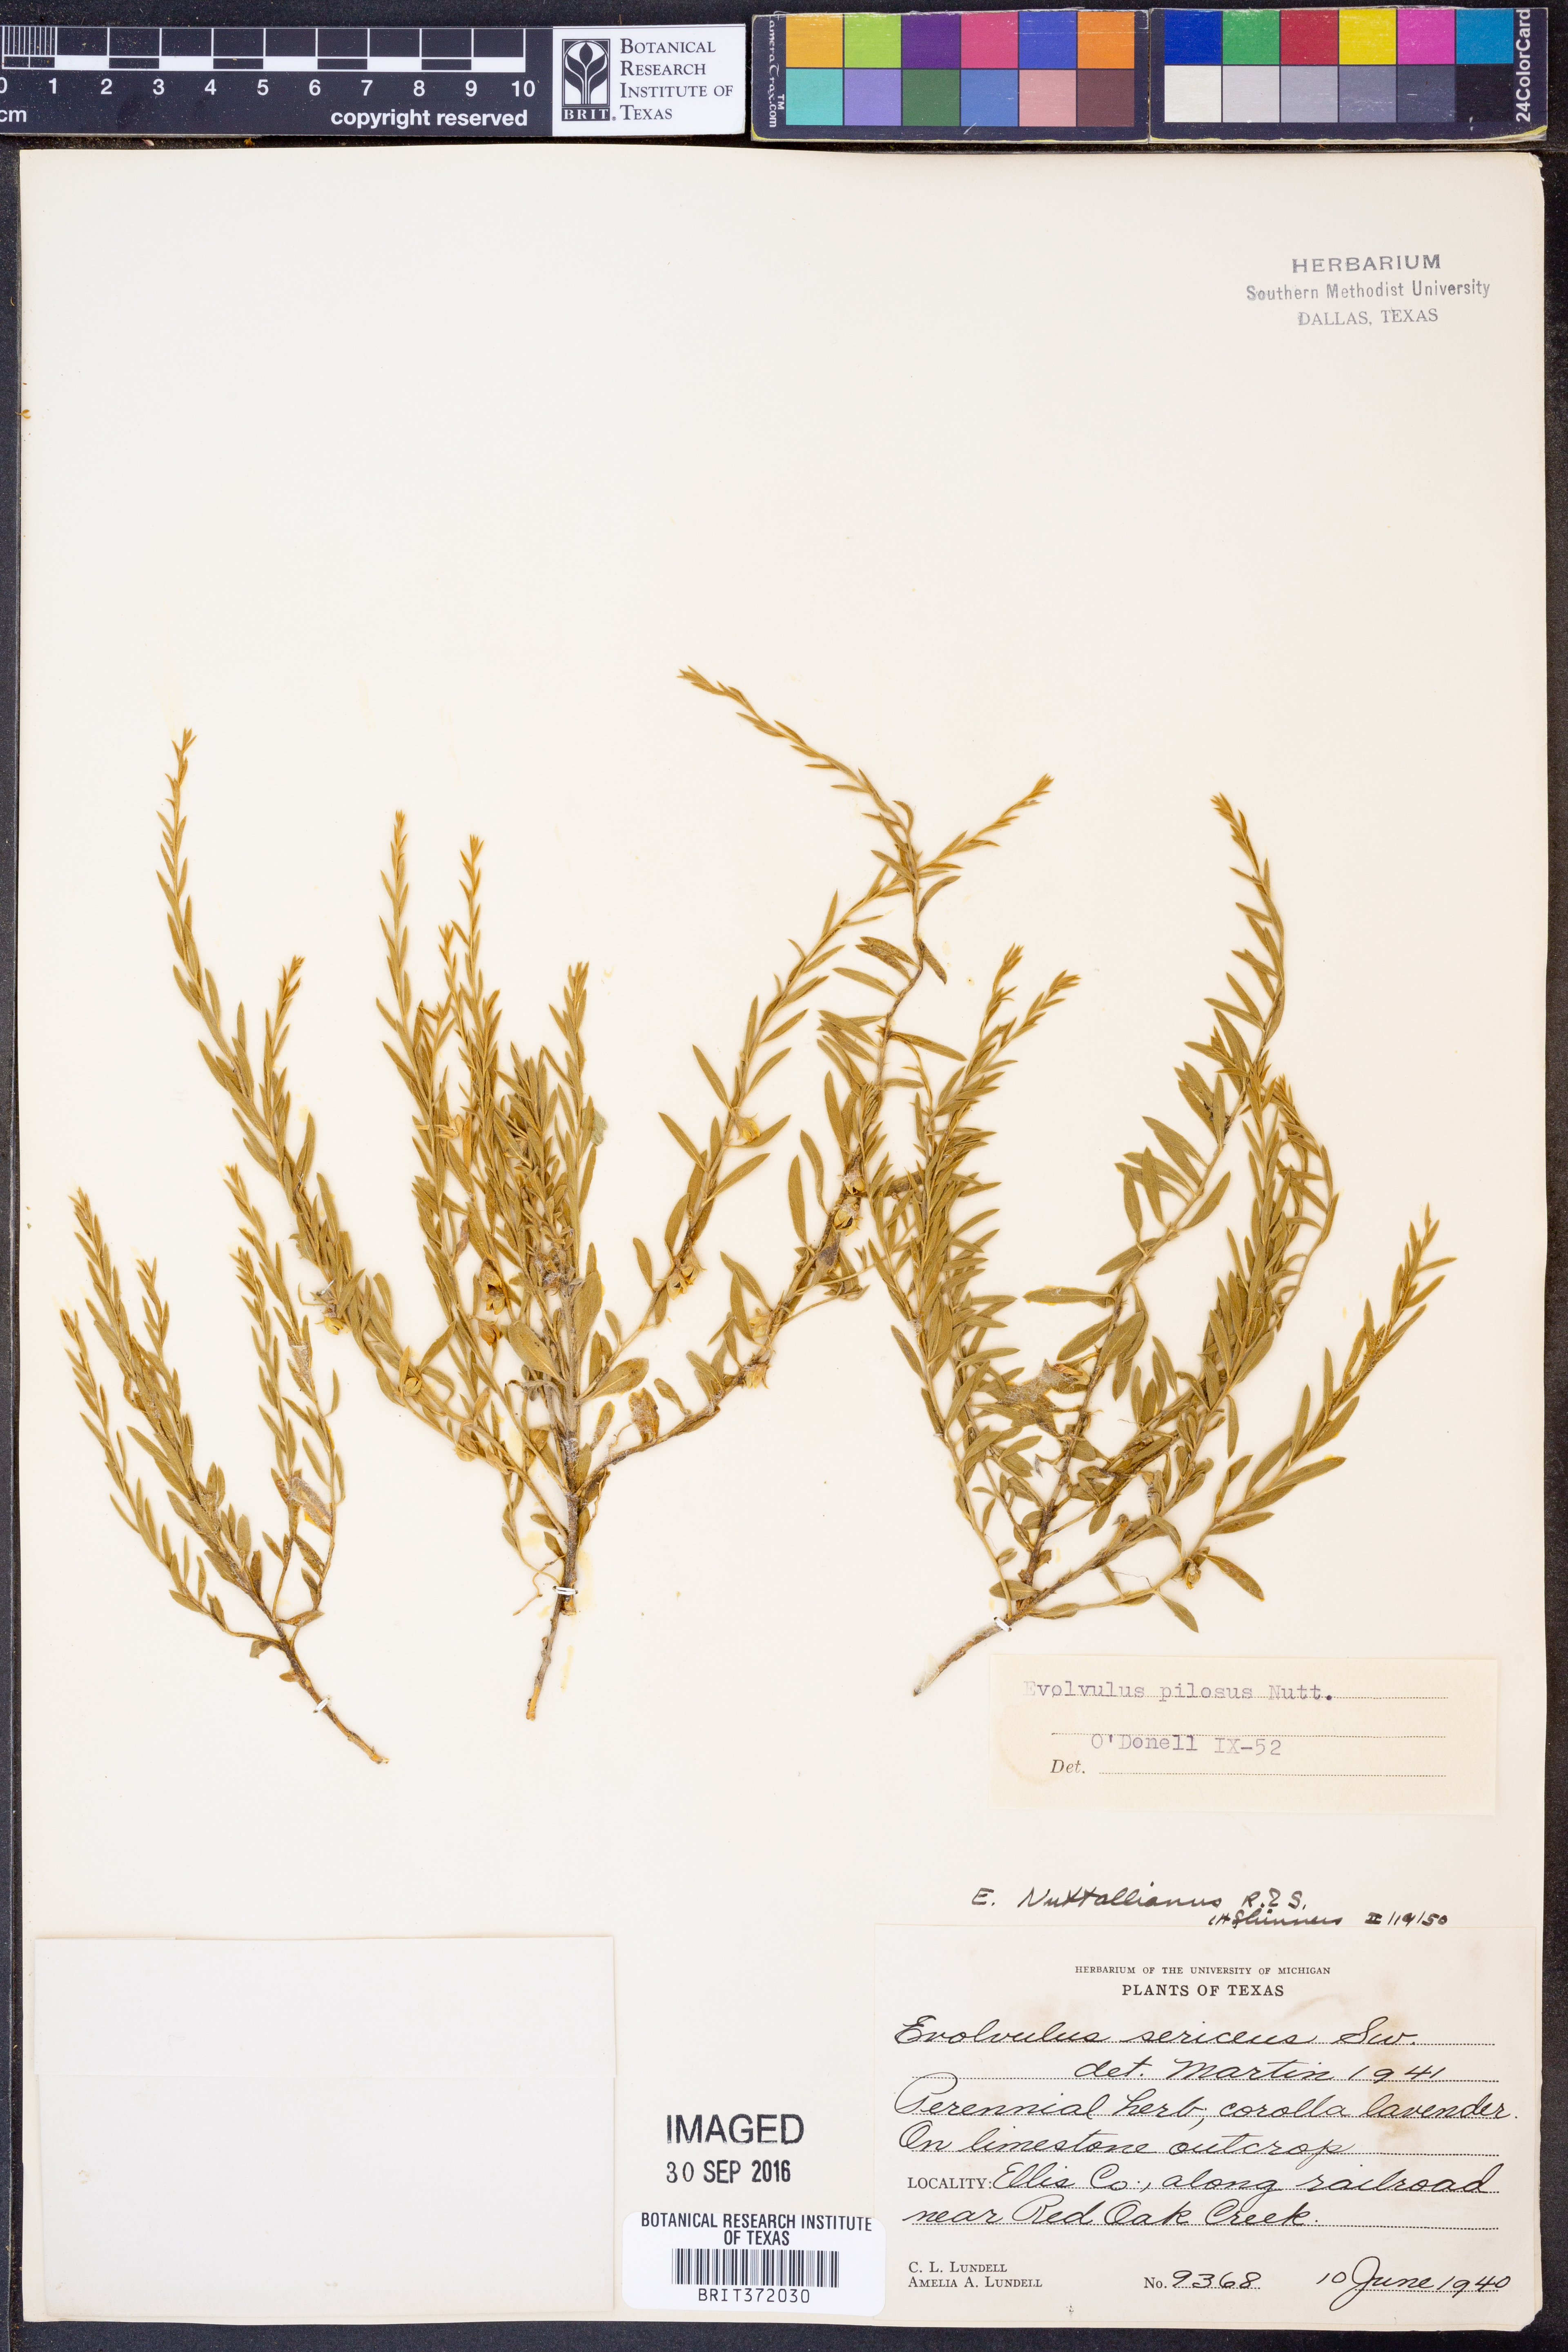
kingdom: Plantae
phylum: Tracheophyta
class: Magnoliopsida
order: Solanales
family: Convolvulaceae
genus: Evolvulus
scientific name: Evolvulus nuttallianus
